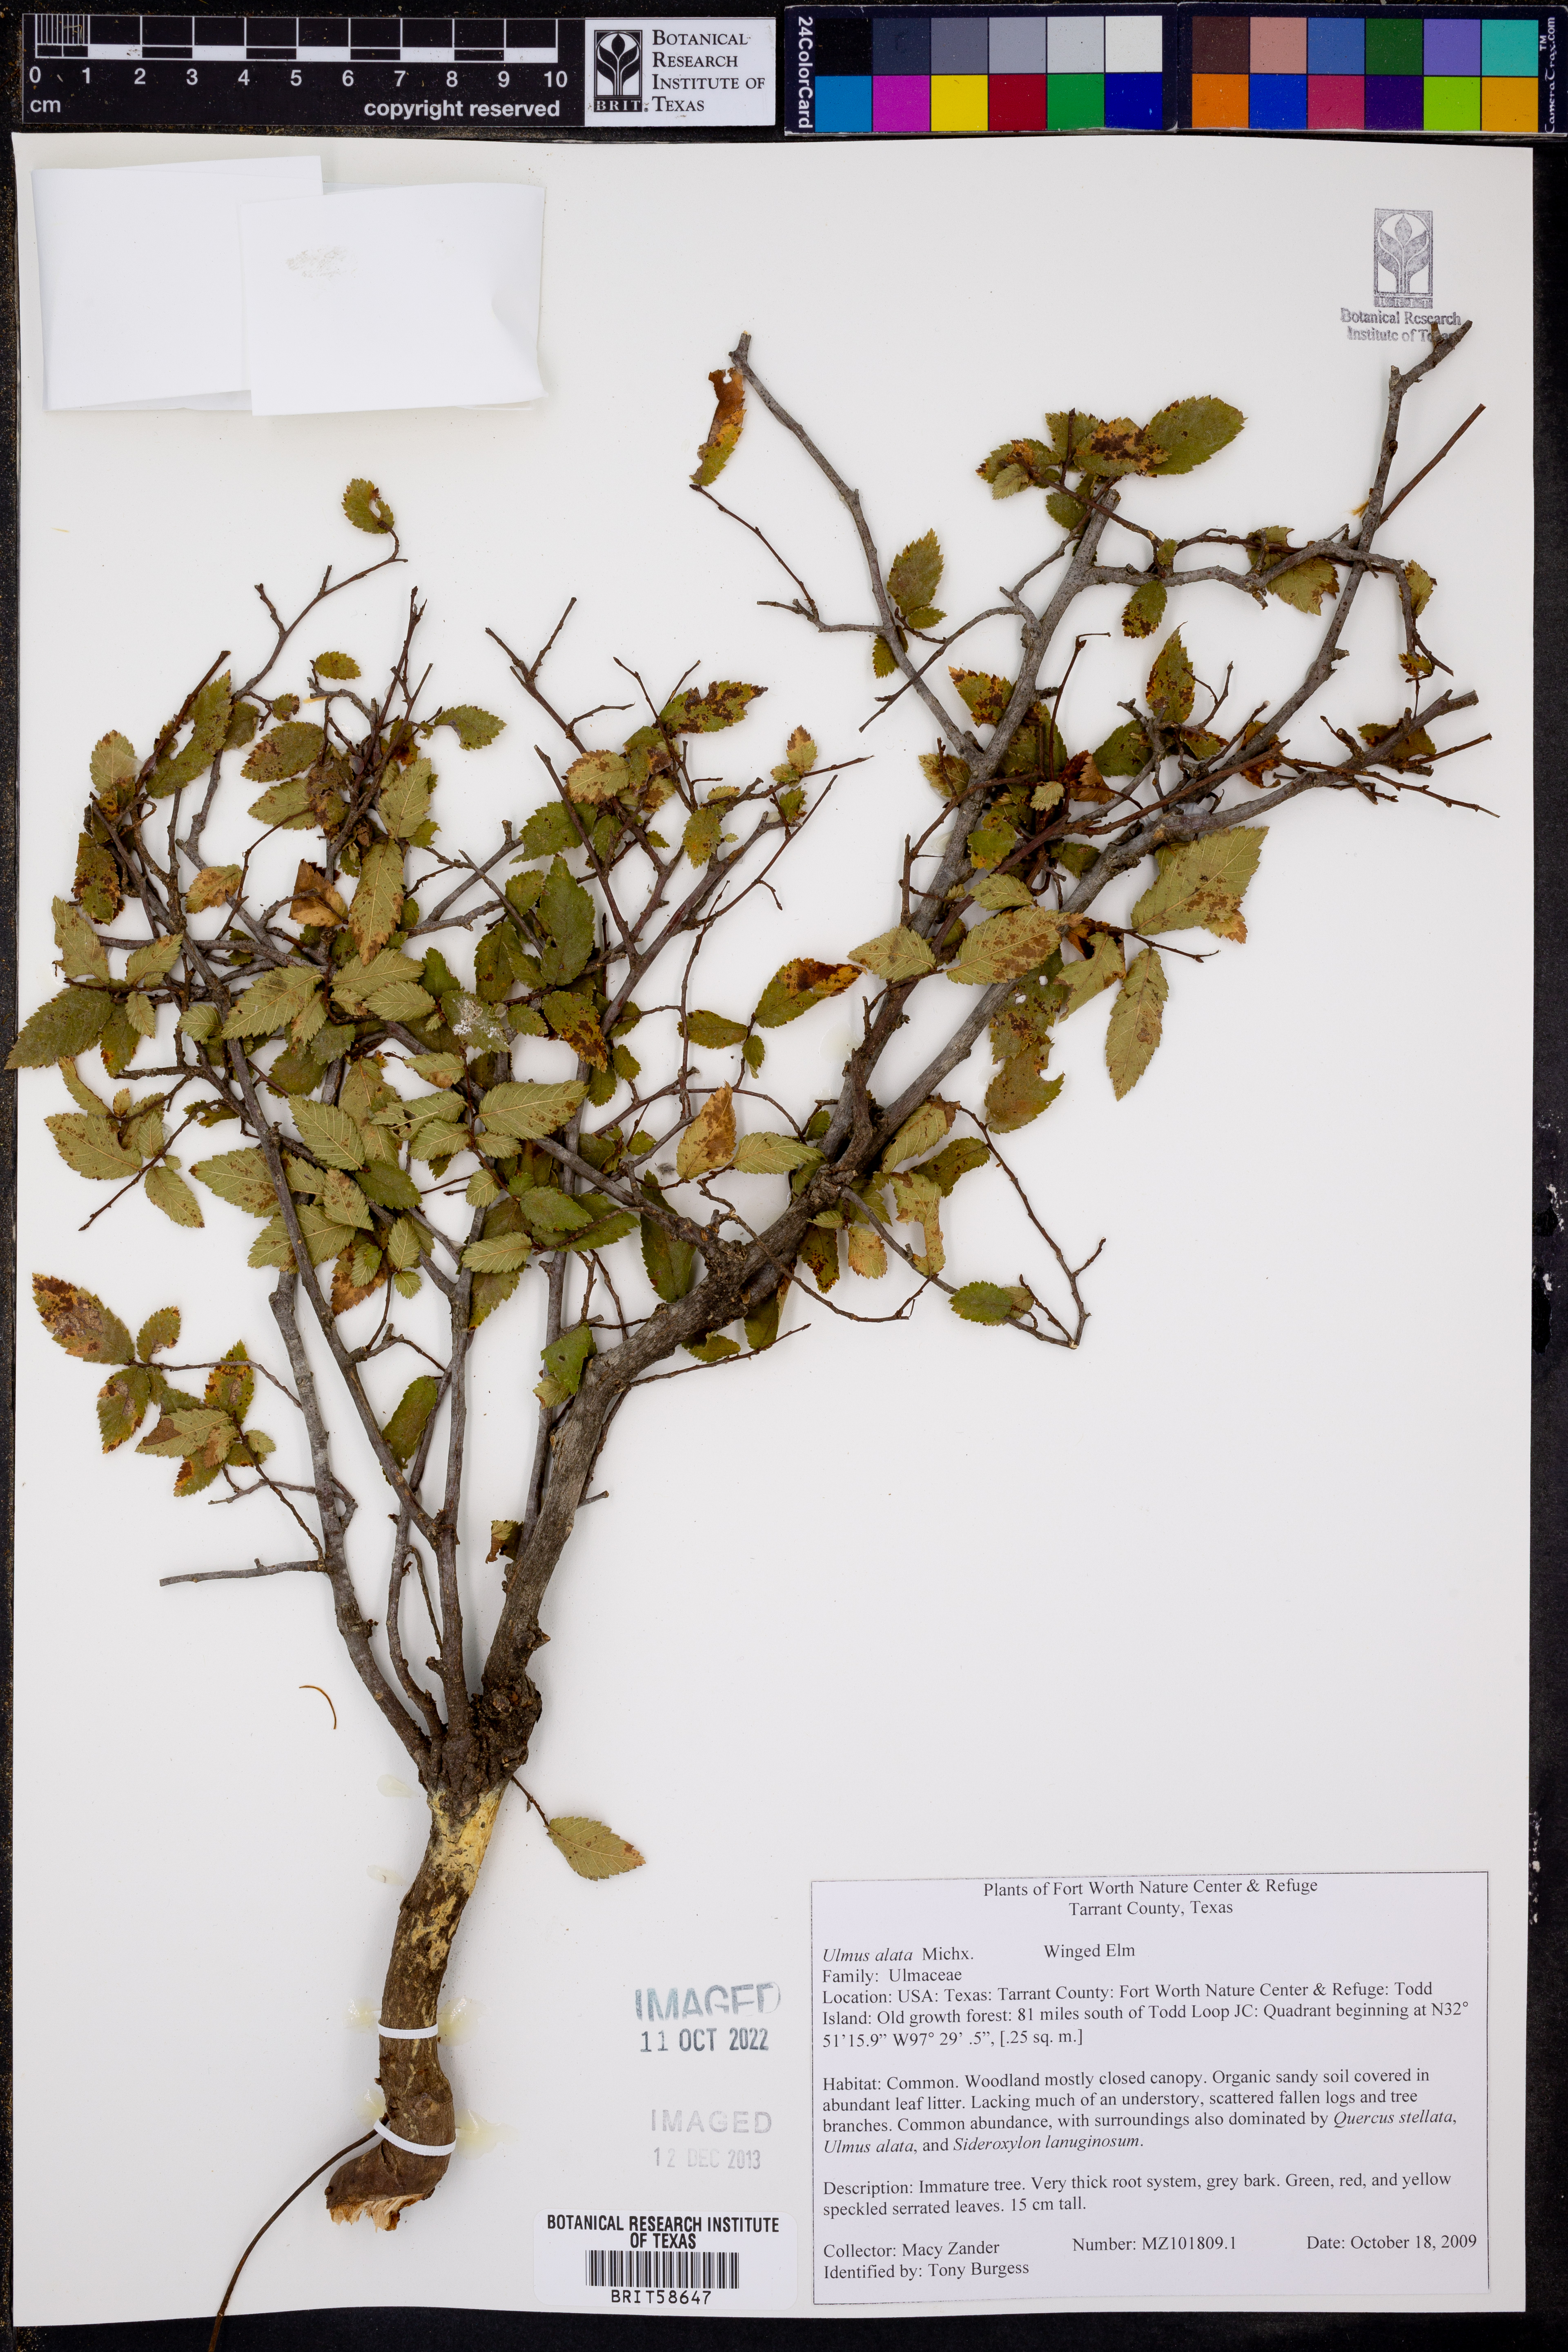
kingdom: Plantae
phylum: Tracheophyta
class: Magnoliopsida
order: Rosales
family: Ulmaceae
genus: Ulmus
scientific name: Ulmus alata
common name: Winged elm
